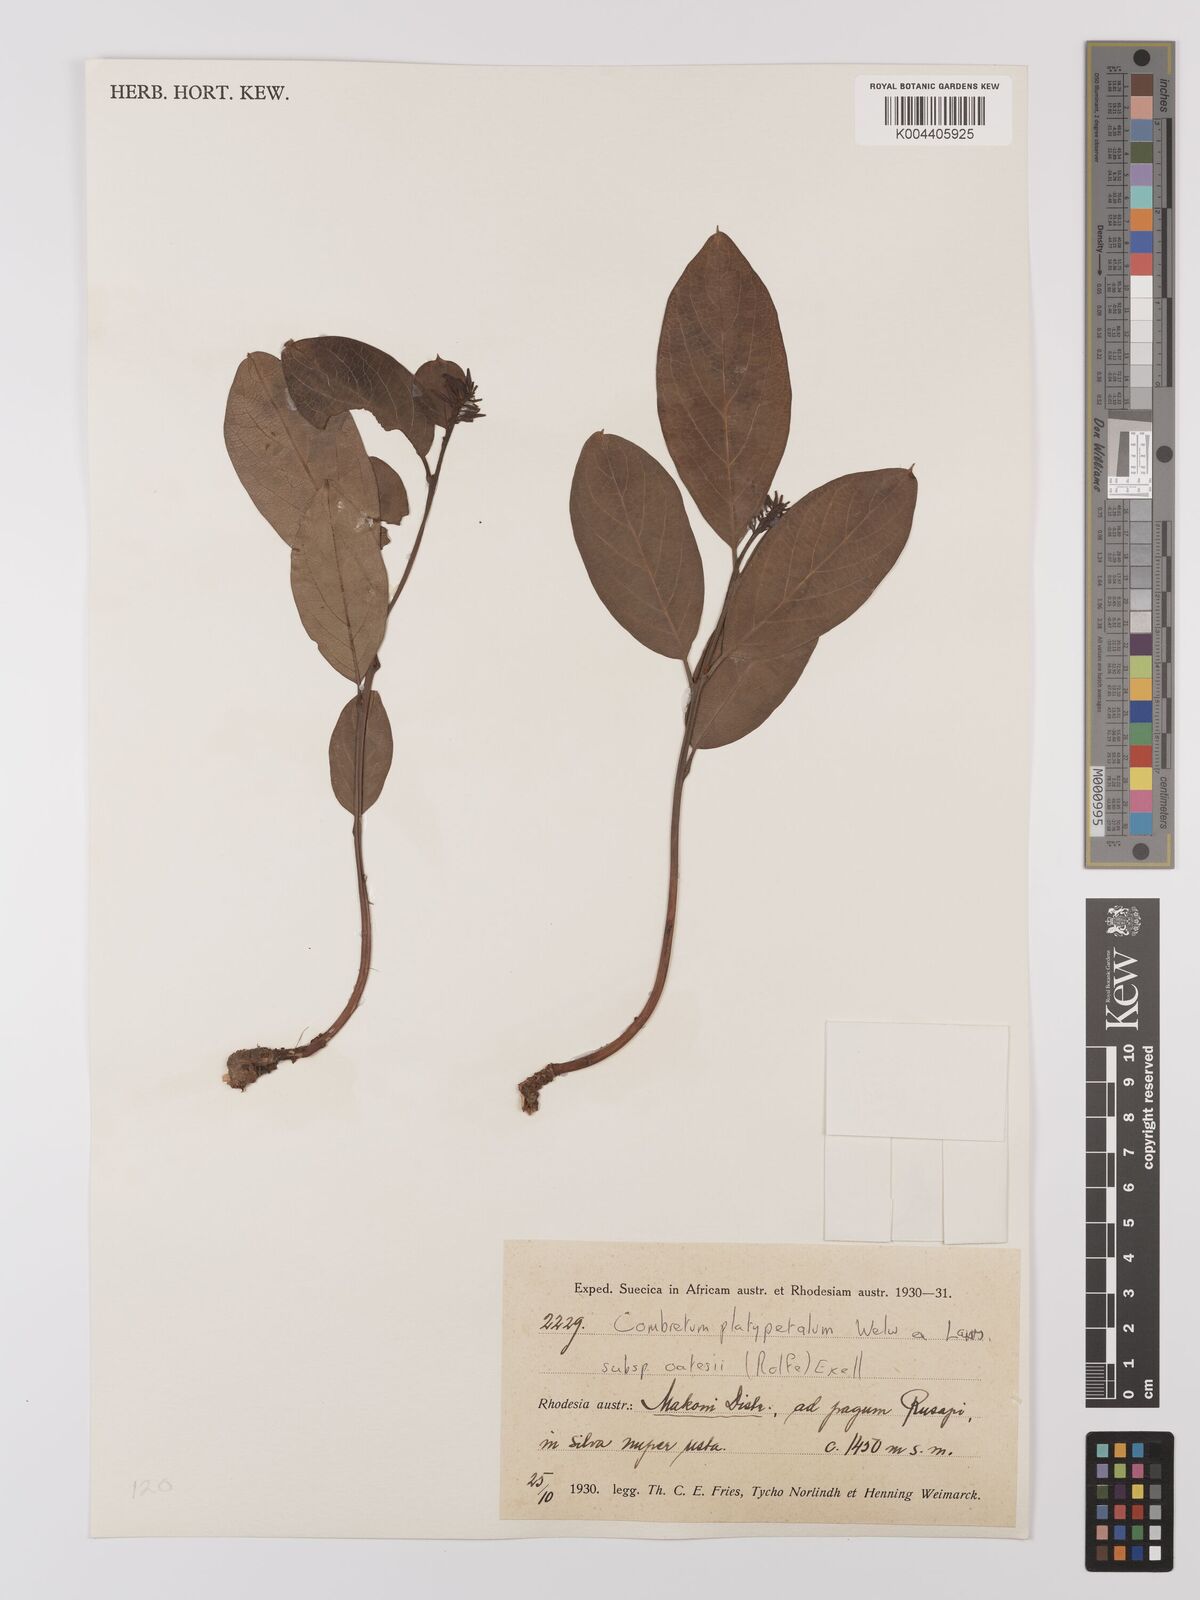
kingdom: Plantae
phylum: Tracheophyta
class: Magnoliopsida
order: Myrtales
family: Combretaceae
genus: Combretum
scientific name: Combretum oatesii
